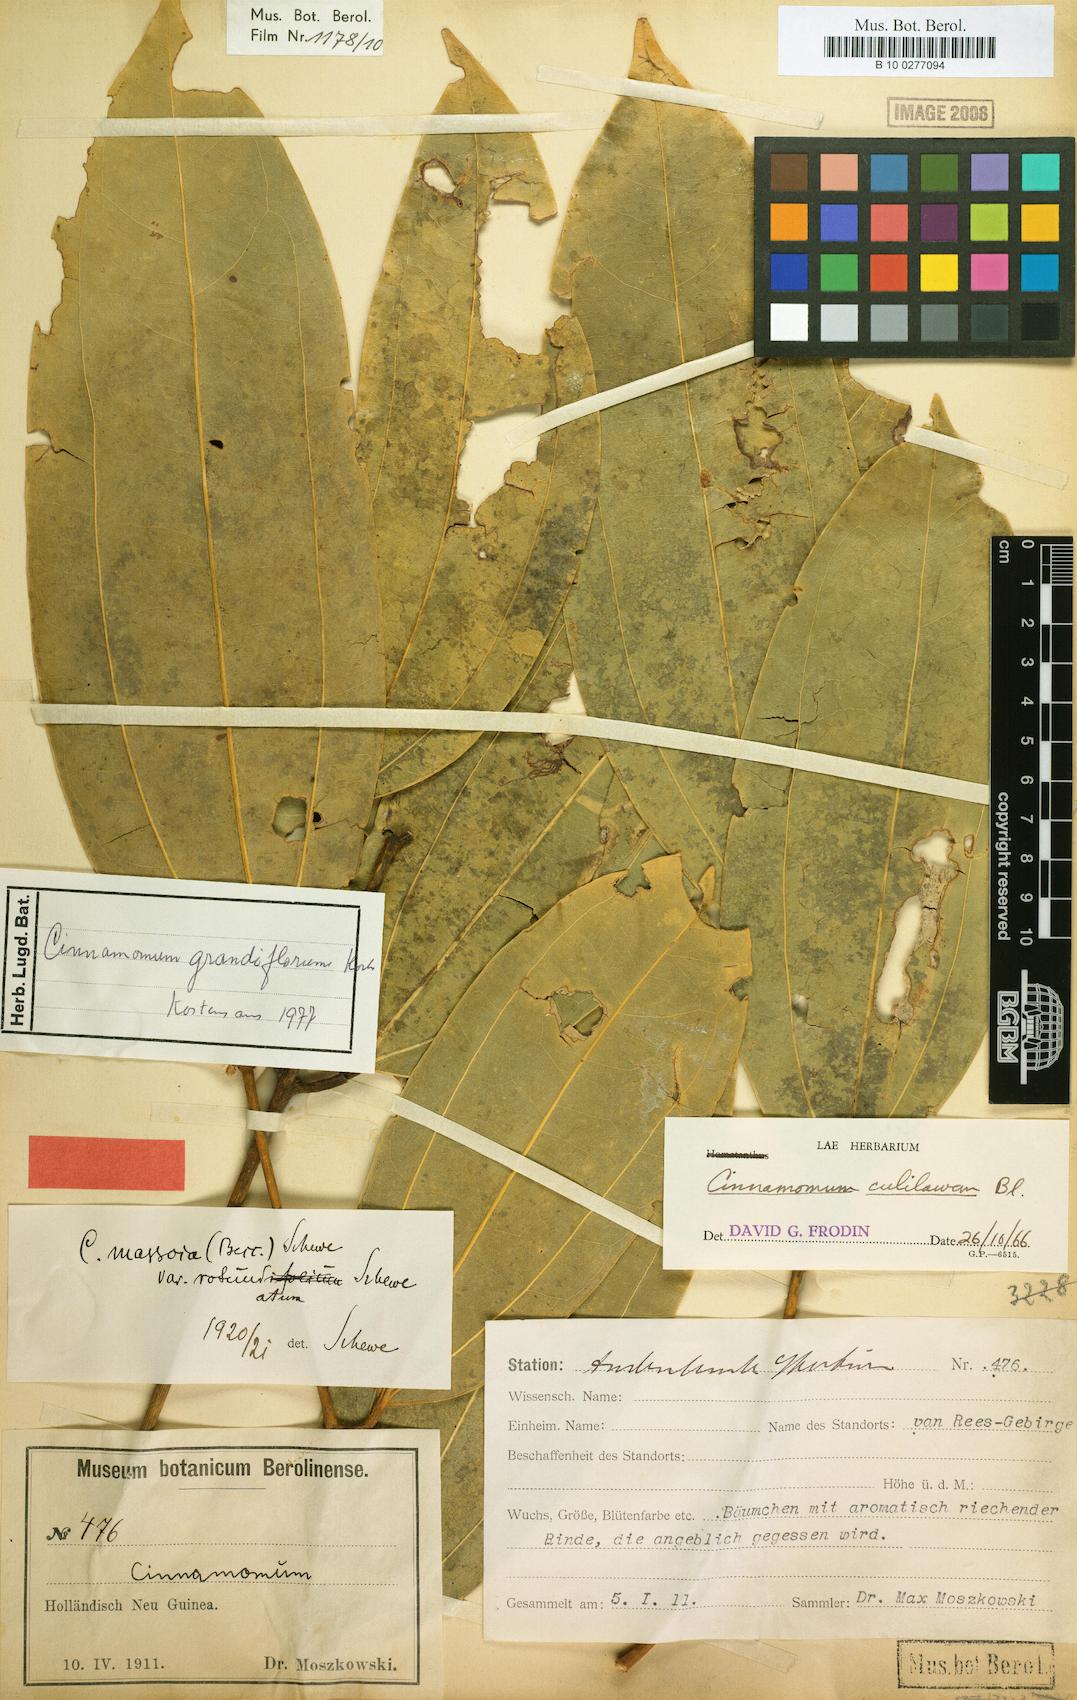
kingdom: Plantae
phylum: Tracheophyta
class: Magnoliopsida
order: Laurales
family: Lauraceae
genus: Cinnamomum
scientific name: Cinnamomum grandiflorum
